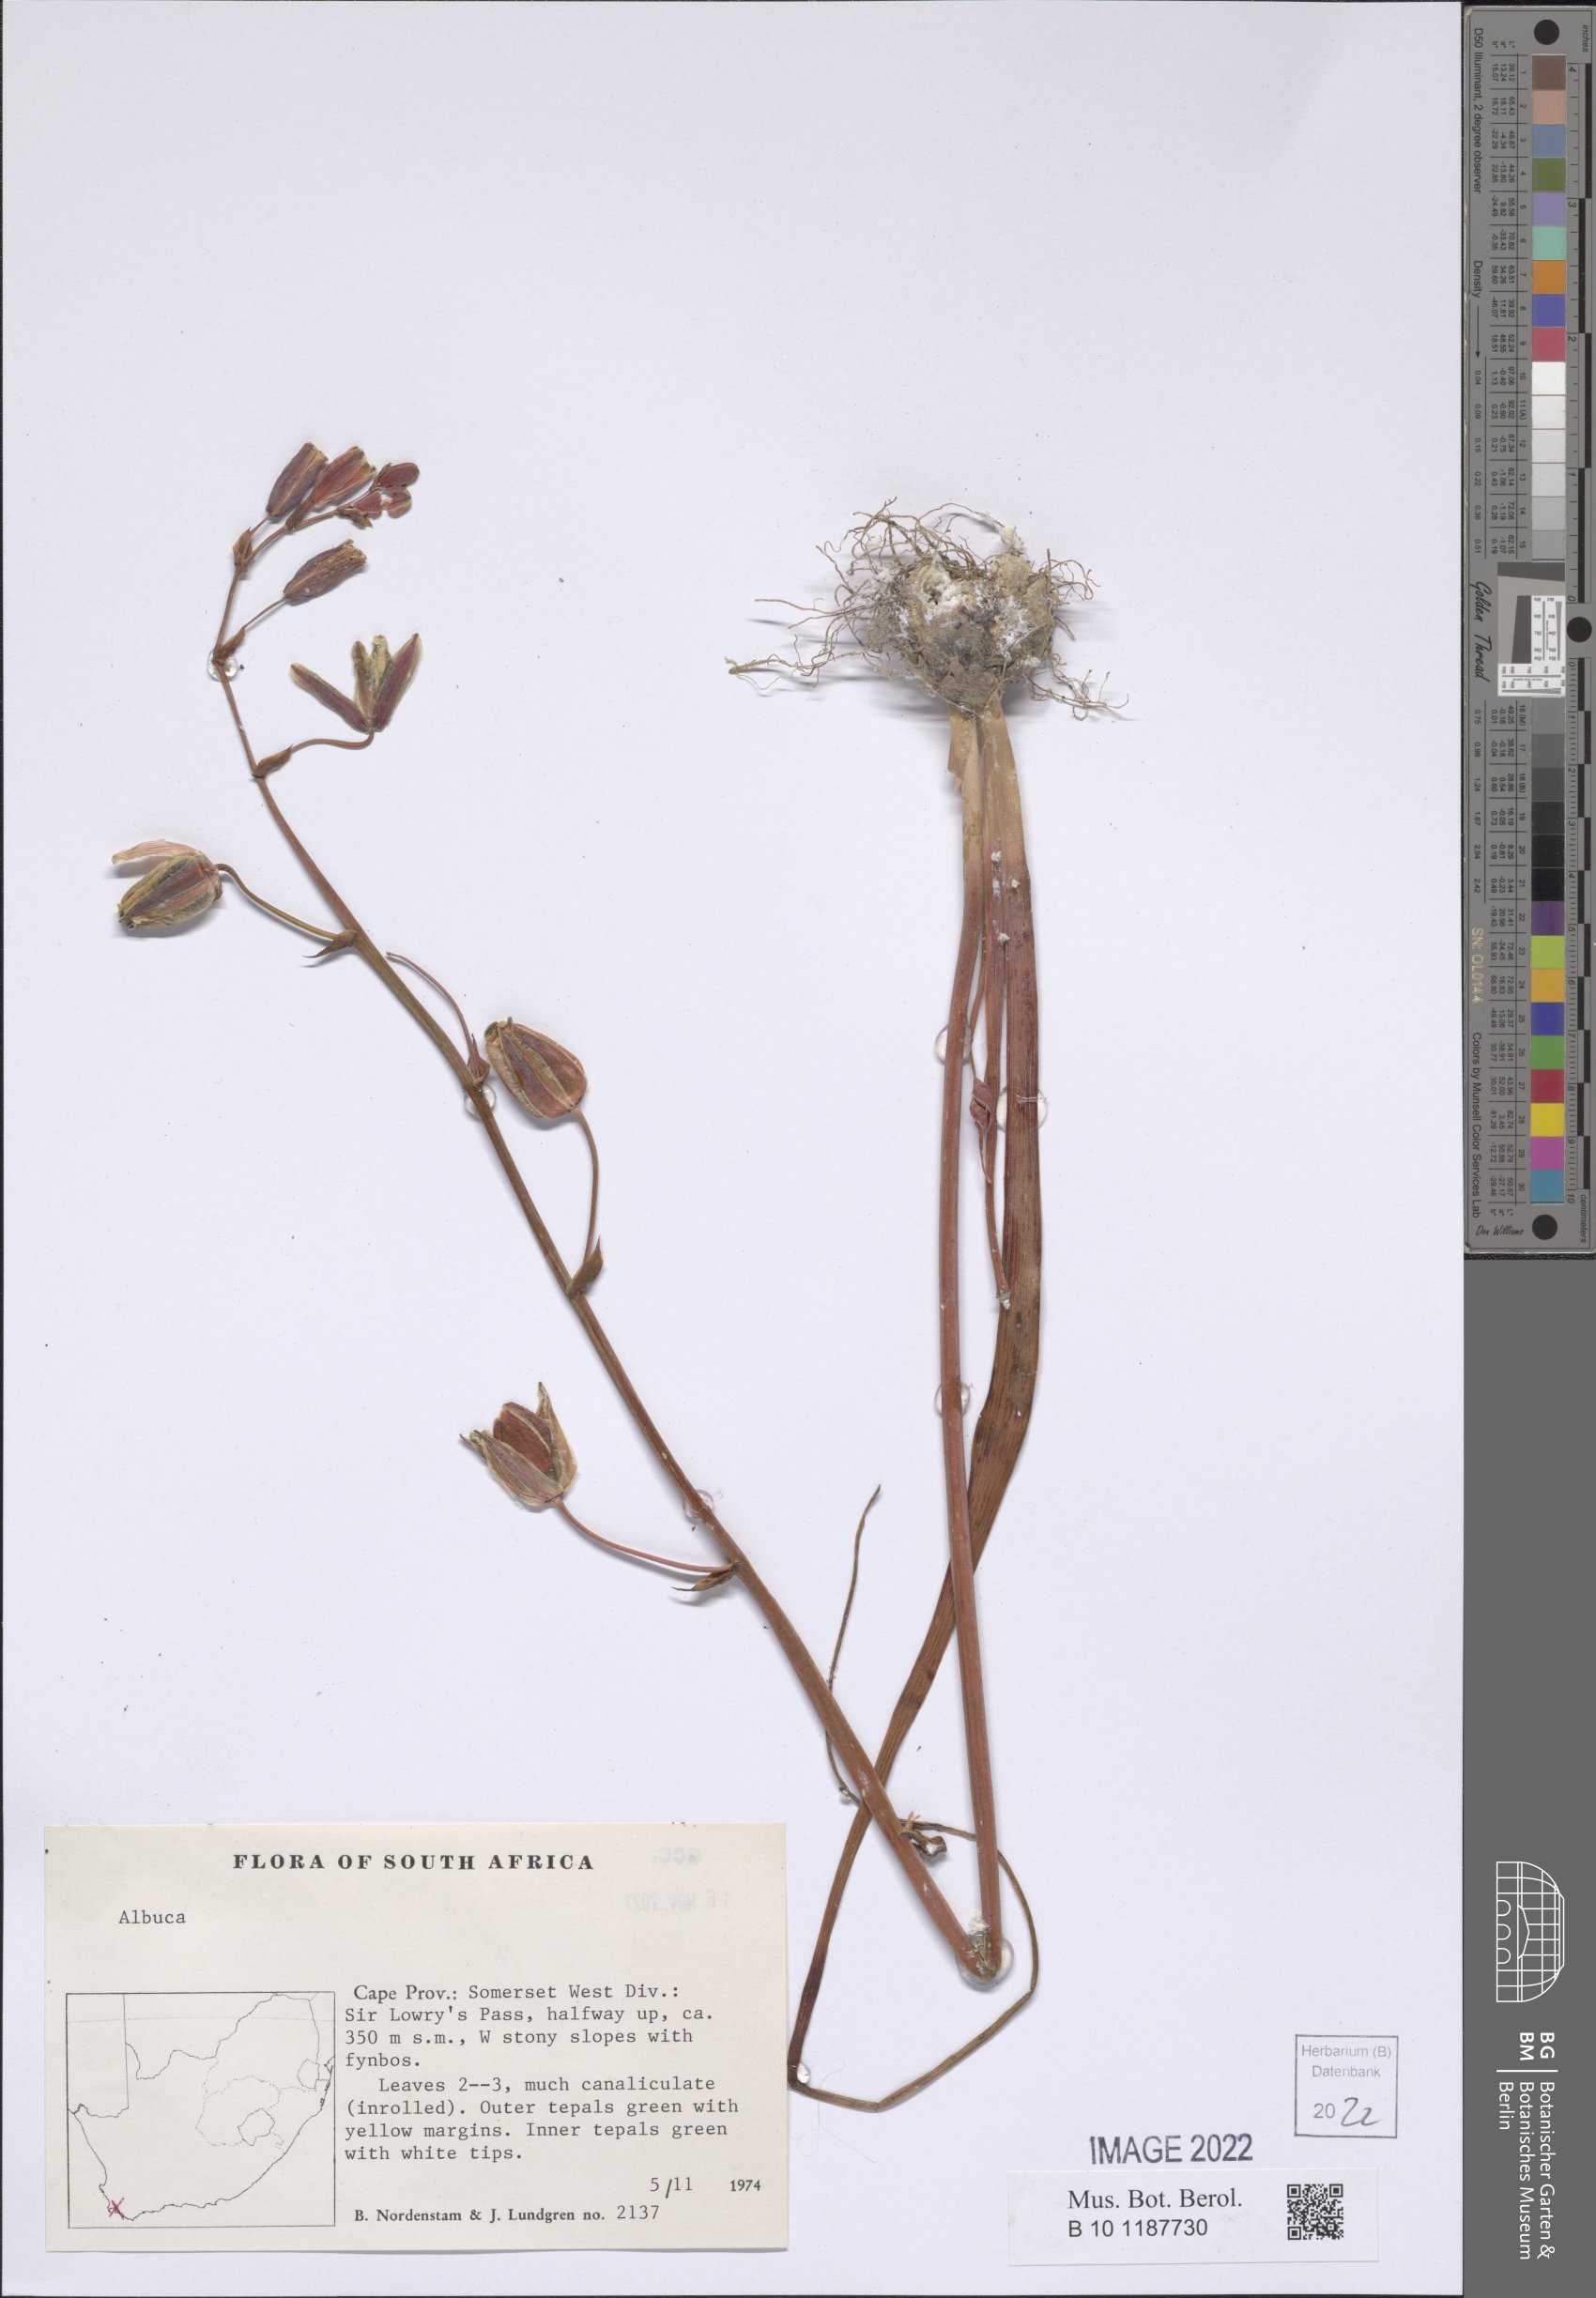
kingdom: Plantae
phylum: Tracheophyta
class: Liliopsida
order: Asparagales
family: Asparagaceae
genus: Albuca
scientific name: Albuca
